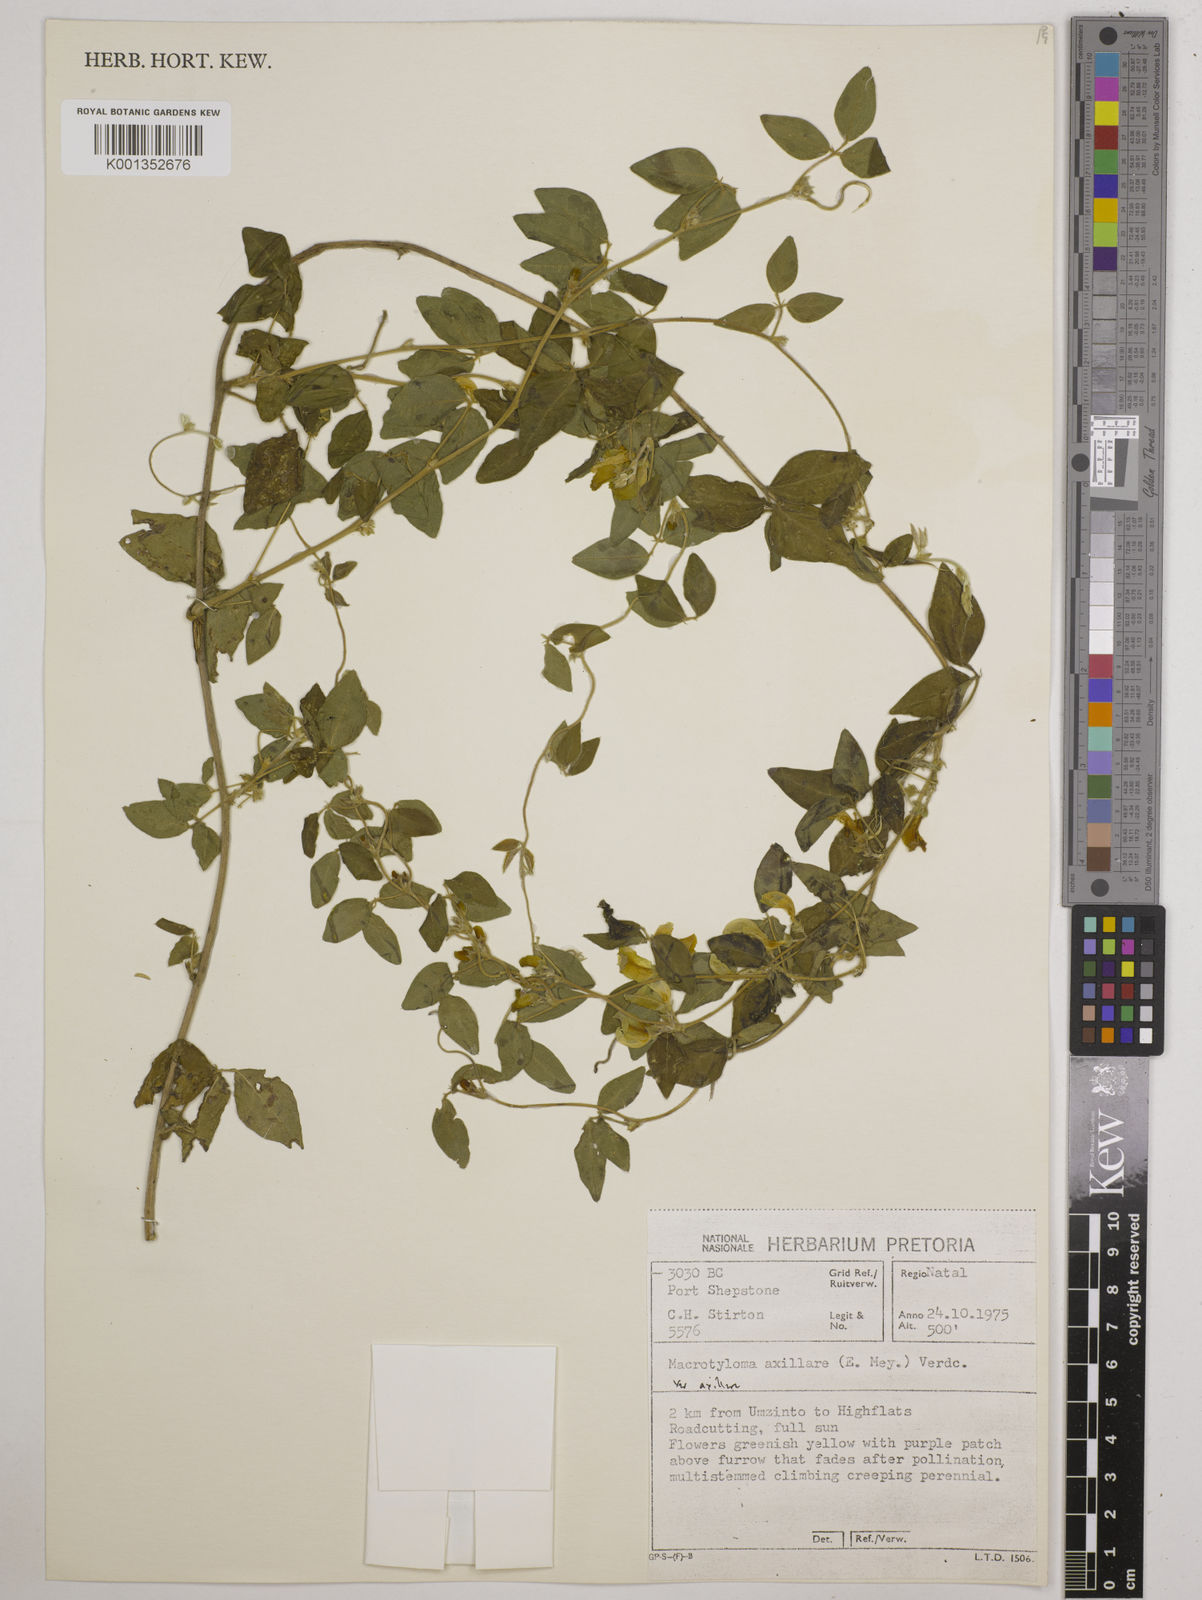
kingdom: Plantae
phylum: Tracheophyta
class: Magnoliopsida
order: Fabales
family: Fabaceae
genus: Macrotyloma
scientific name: Macrotyloma axillare
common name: Perennial horsegram
